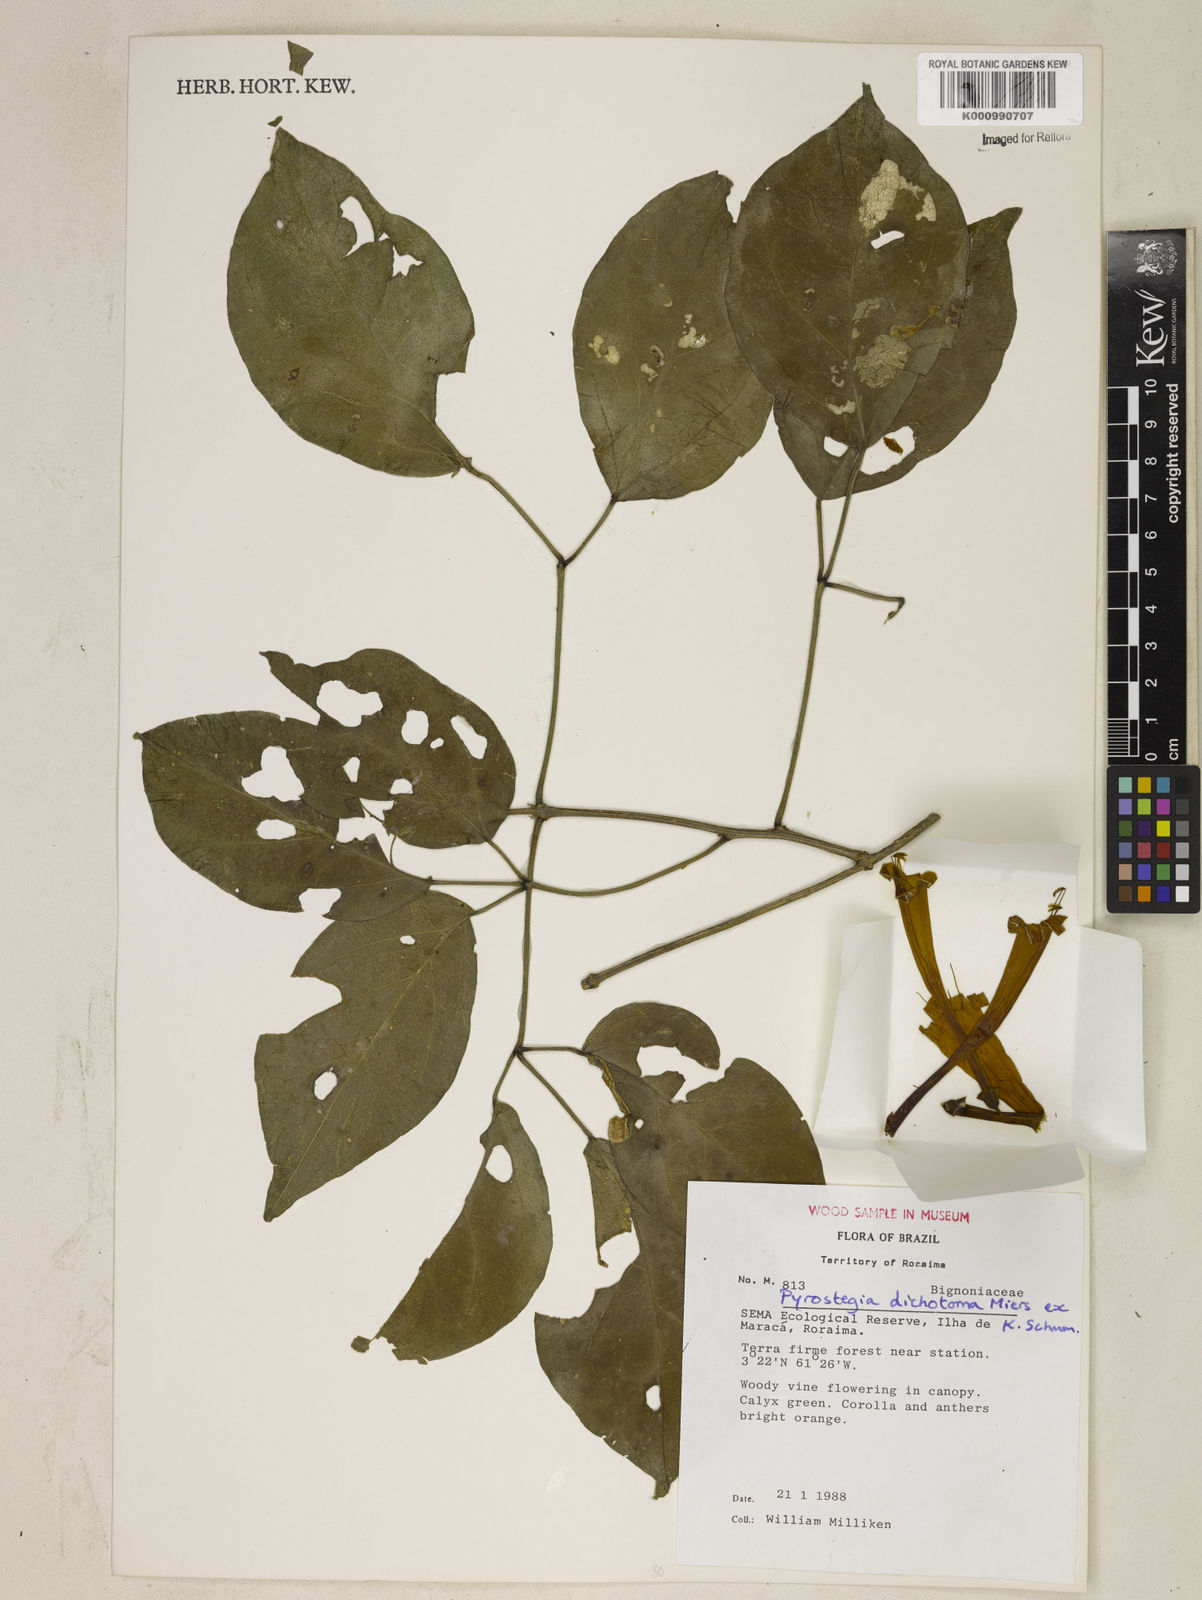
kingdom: Plantae
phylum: Tracheophyta
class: Magnoliopsida
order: Lamiales
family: Bignoniaceae
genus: Pyrostegia
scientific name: Pyrostegia
